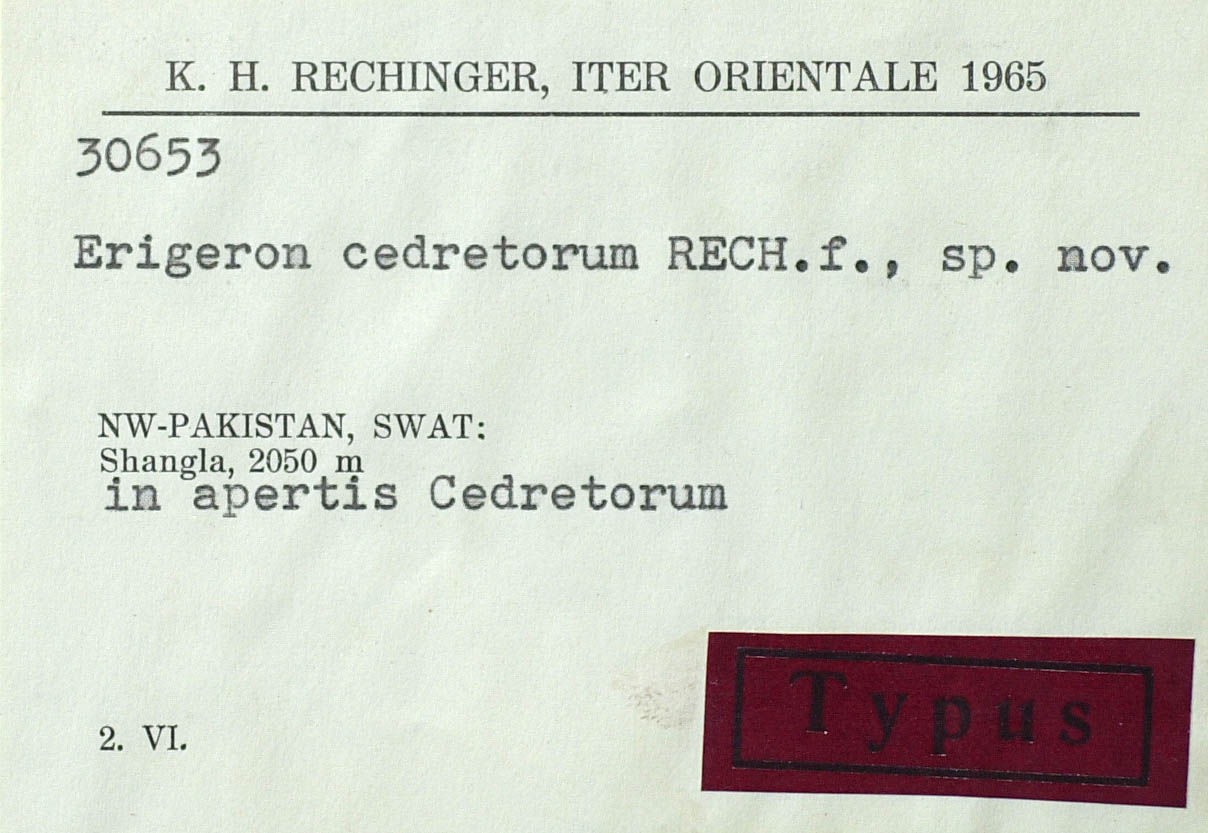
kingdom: Plantae
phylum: Tracheophyta
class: Magnoliopsida
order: Asterales
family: Asteraceae
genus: Erigeron
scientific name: Erigeron cedretorum
